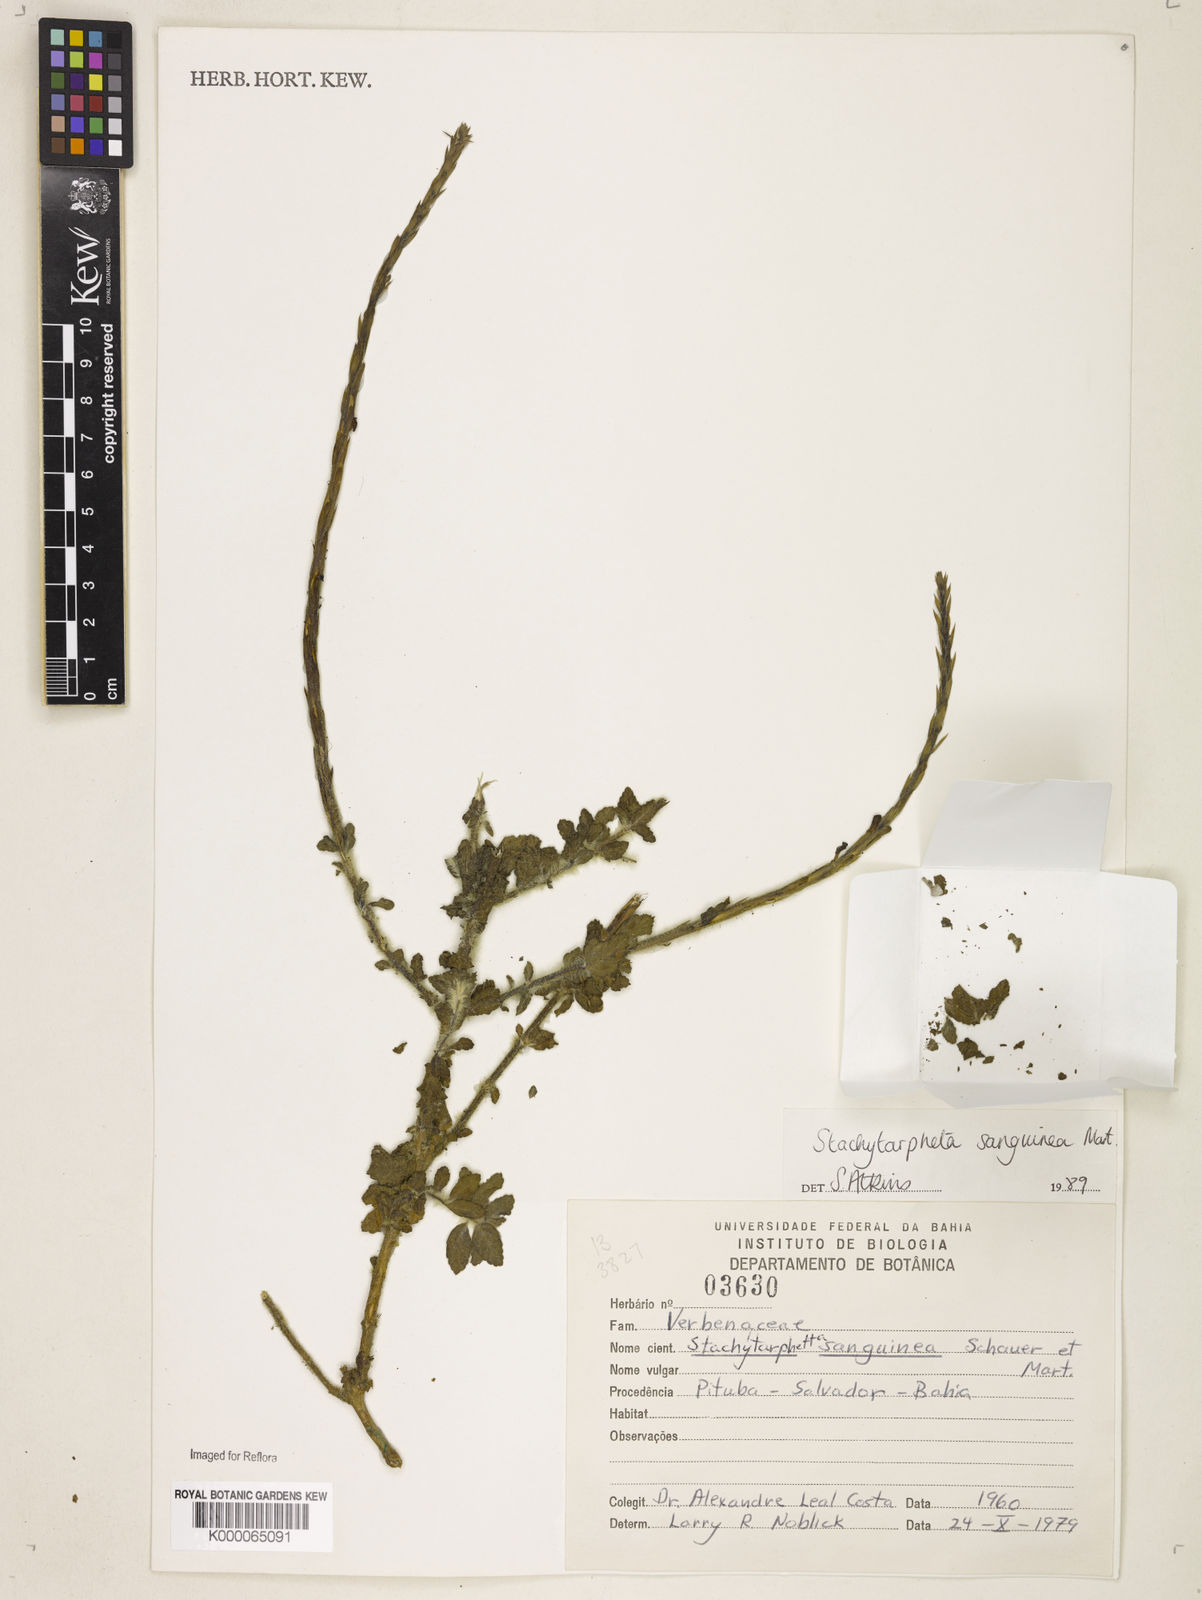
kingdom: Plantae
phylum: Tracheophyta
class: Magnoliopsida
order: Lamiales
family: Verbenaceae
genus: Stachytarpheta
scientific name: Stachytarpheta
